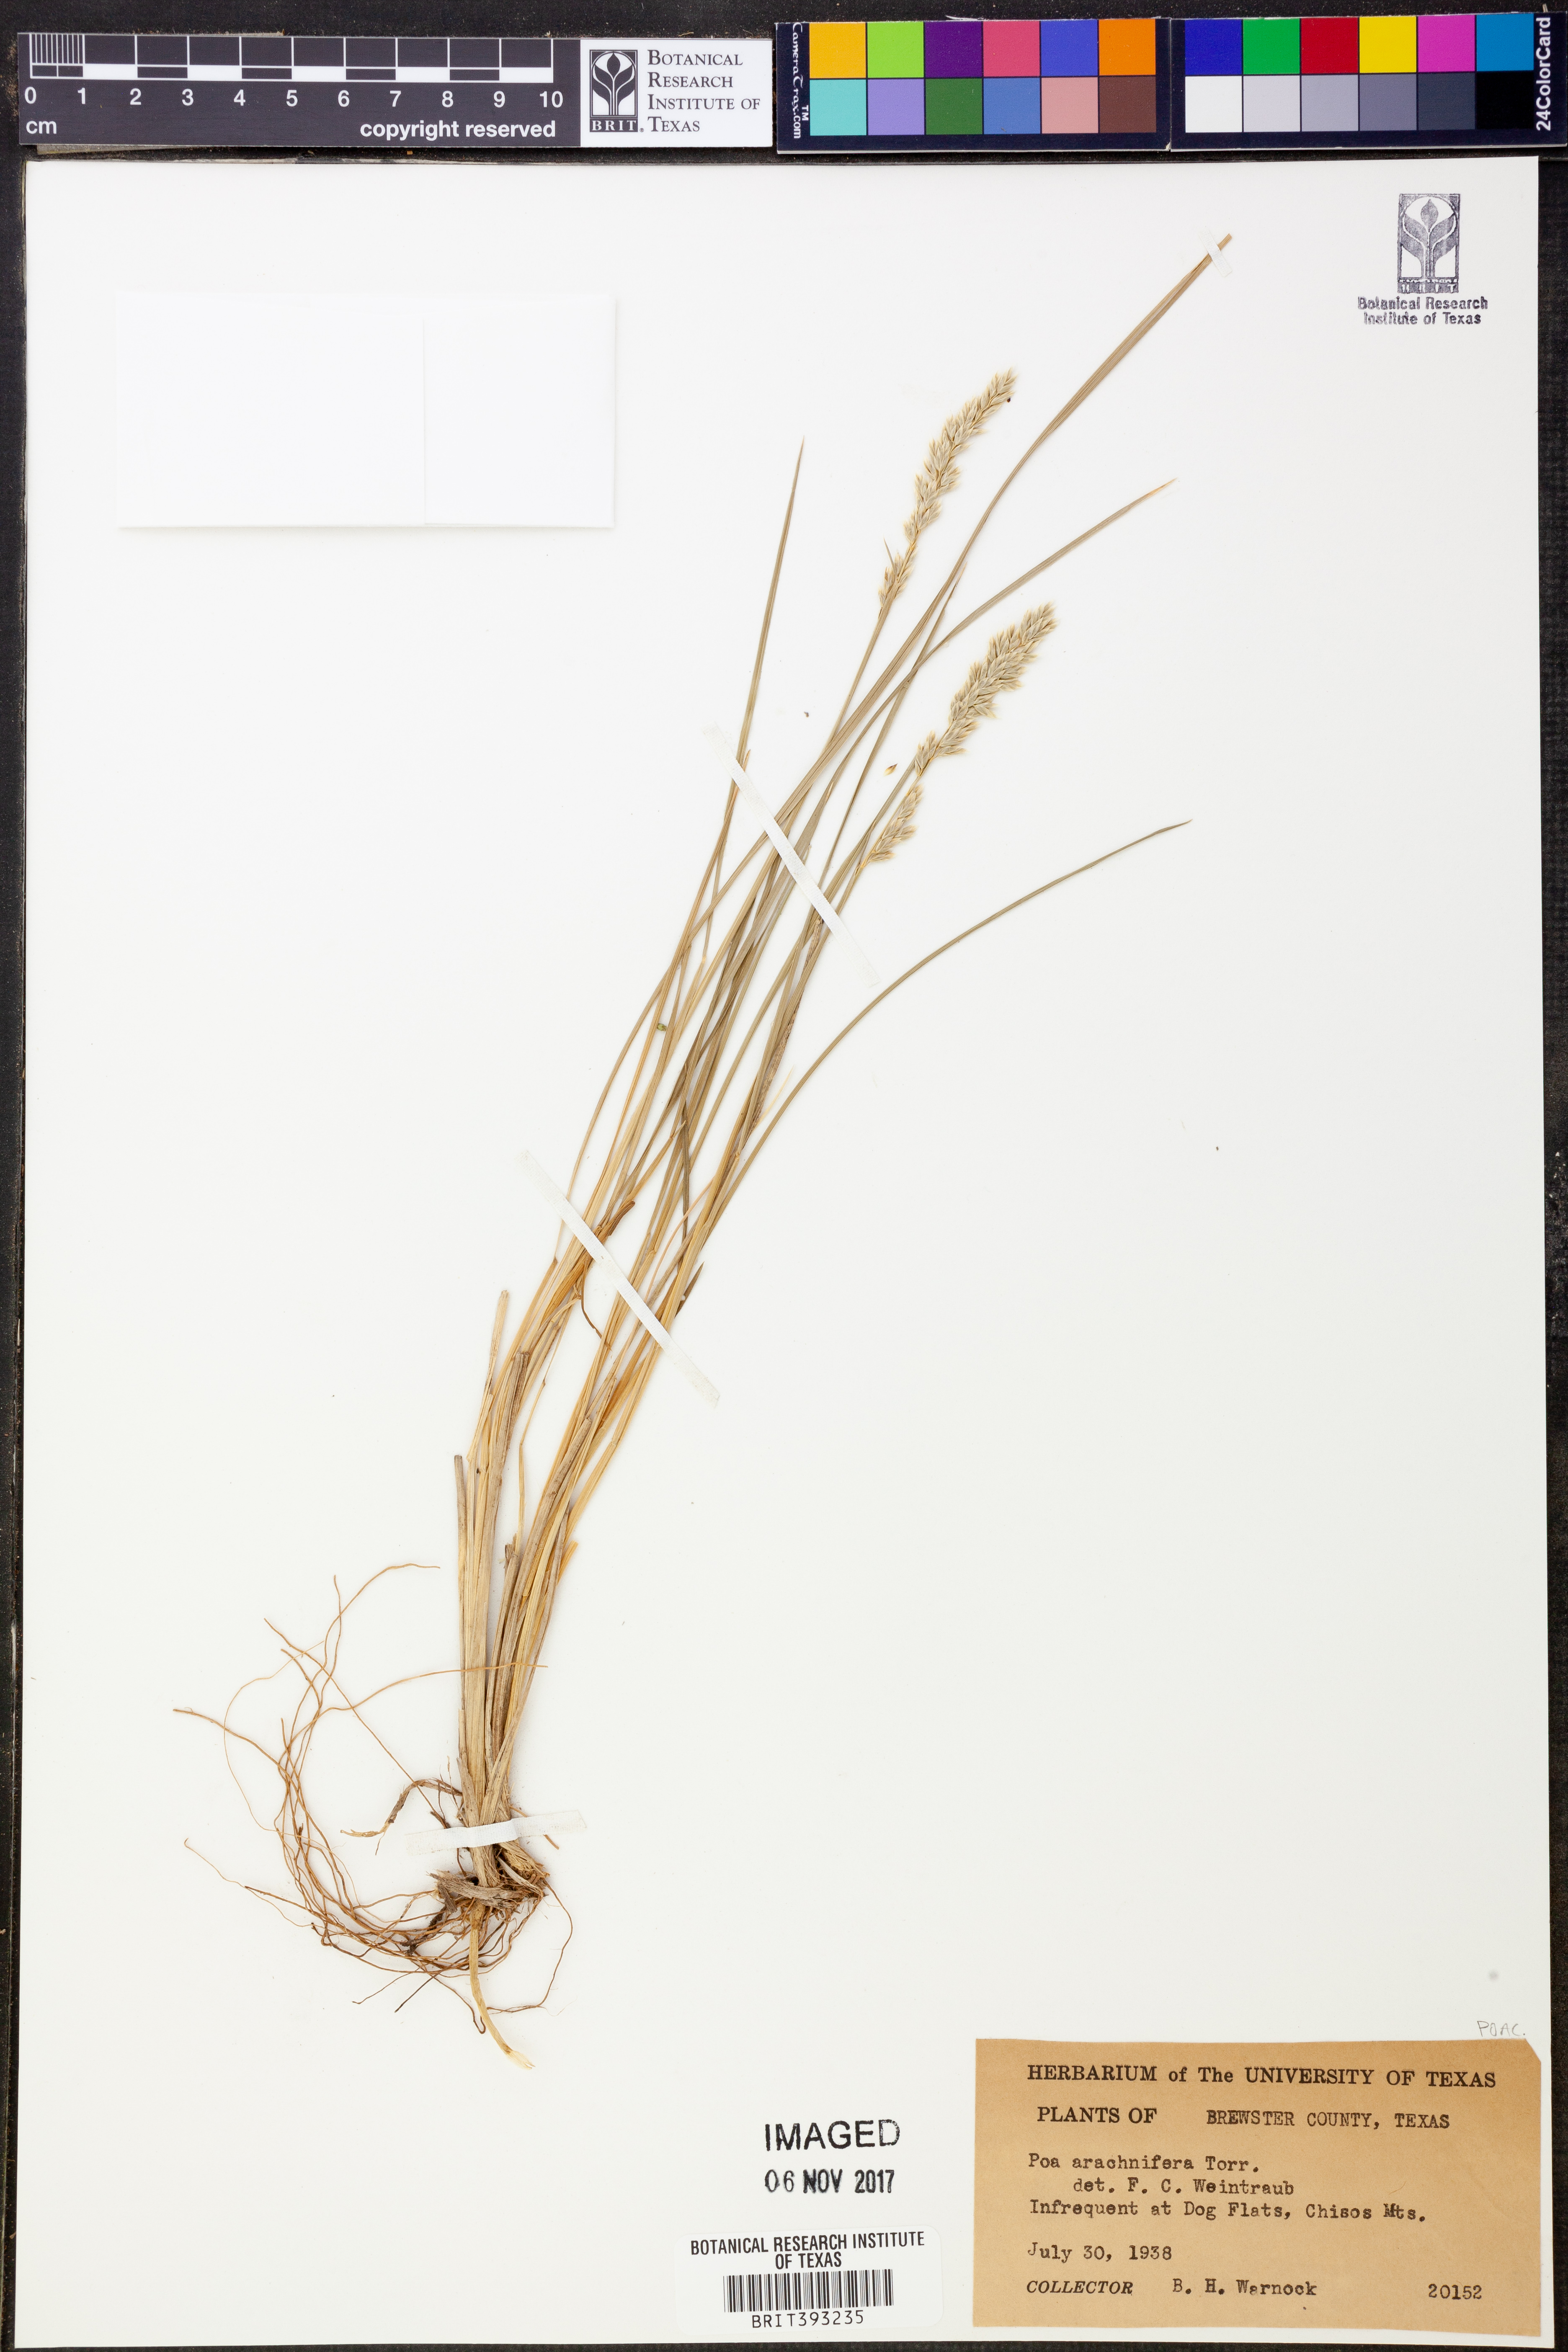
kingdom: Plantae
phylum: Tracheophyta
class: Liliopsida
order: Poales
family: Poaceae
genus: Poa
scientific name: Poa arachnifera
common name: Texas bluegrass
